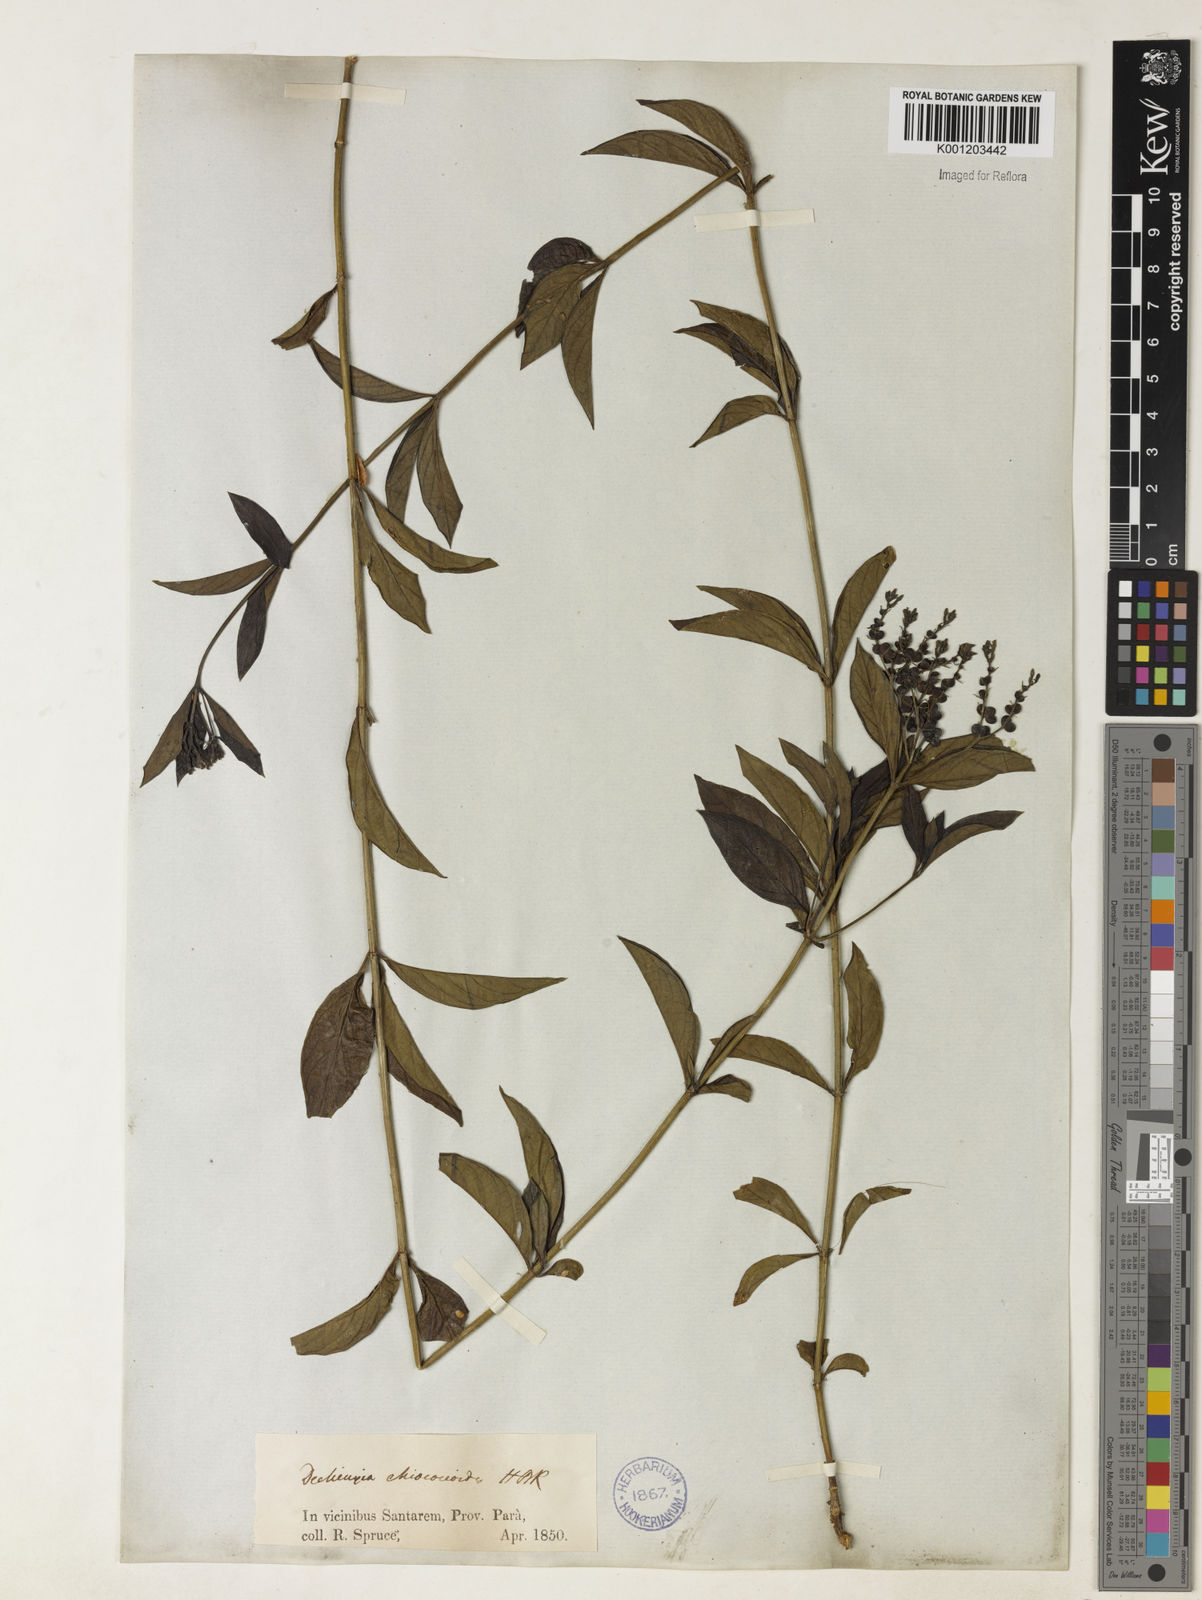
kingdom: Plantae
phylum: Tracheophyta
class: Magnoliopsida
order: Gentianales
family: Rubiaceae
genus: Declieuxia
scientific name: Declieuxia fruticosa
